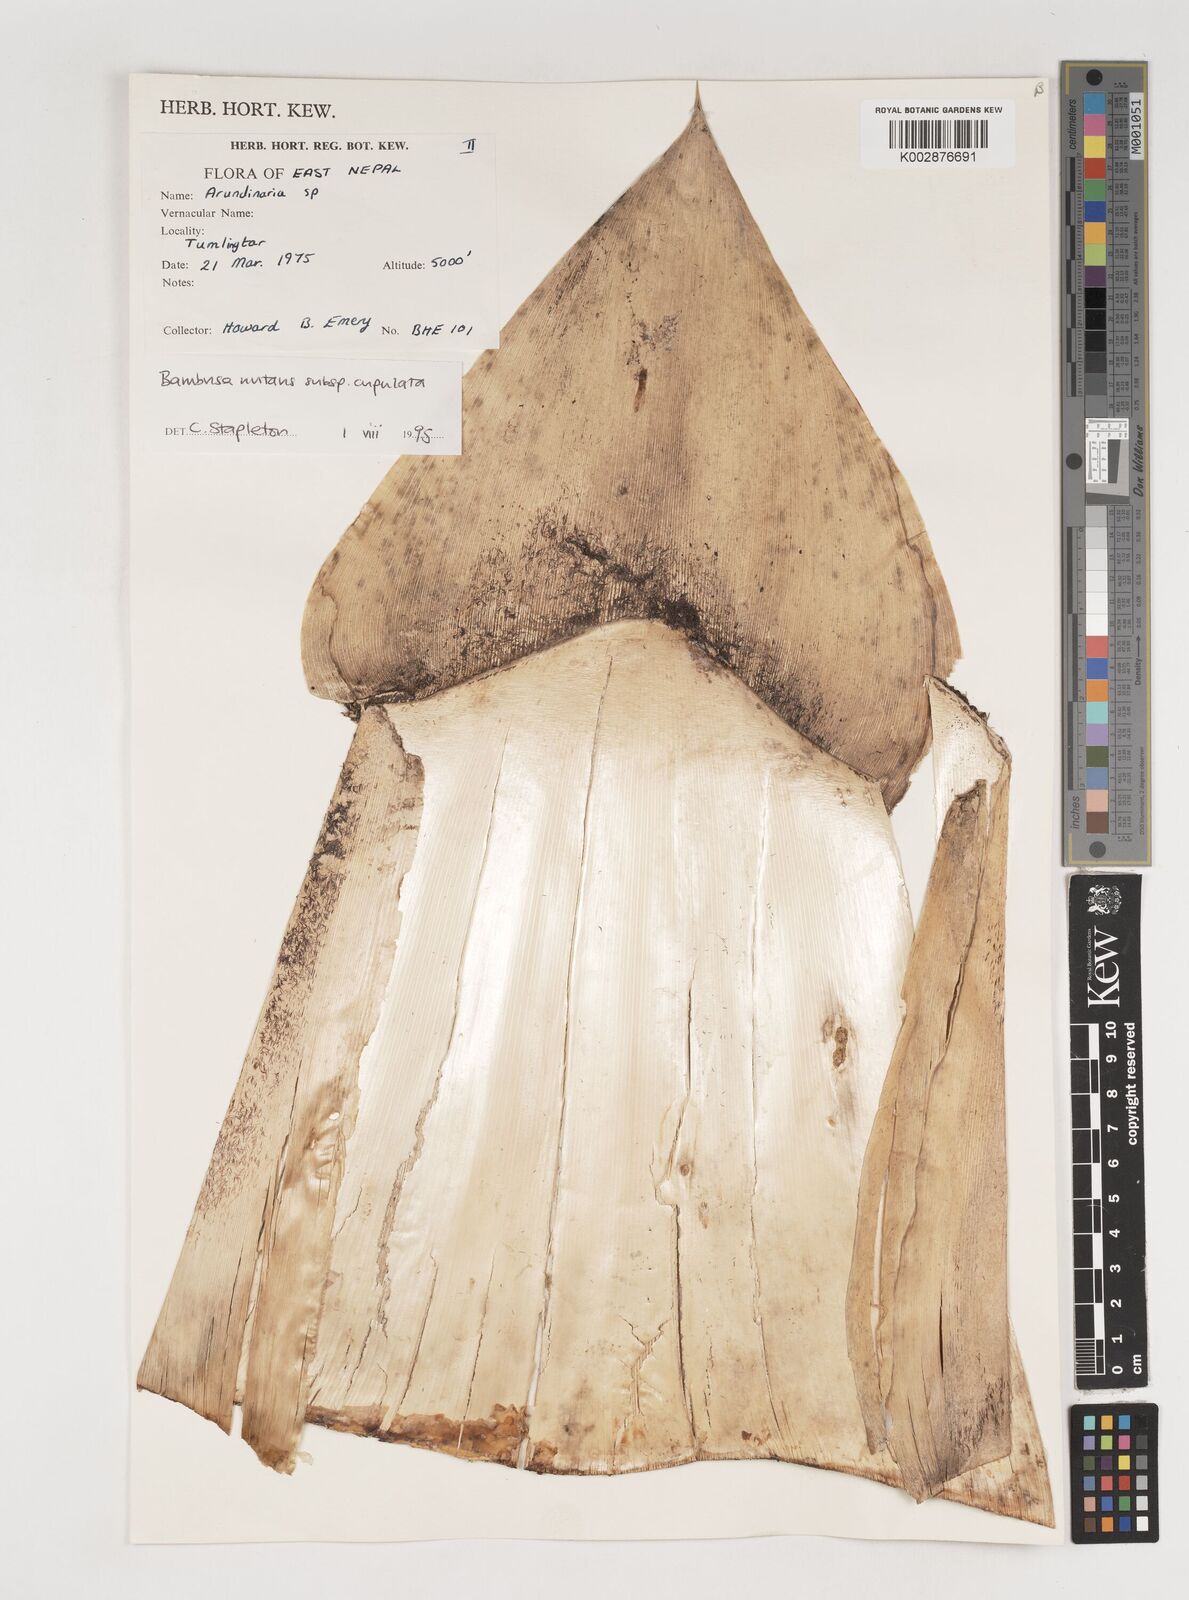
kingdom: Plantae
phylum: Tracheophyta
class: Liliopsida
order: Poales
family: Poaceae
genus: Bambusa
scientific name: Bambusa
